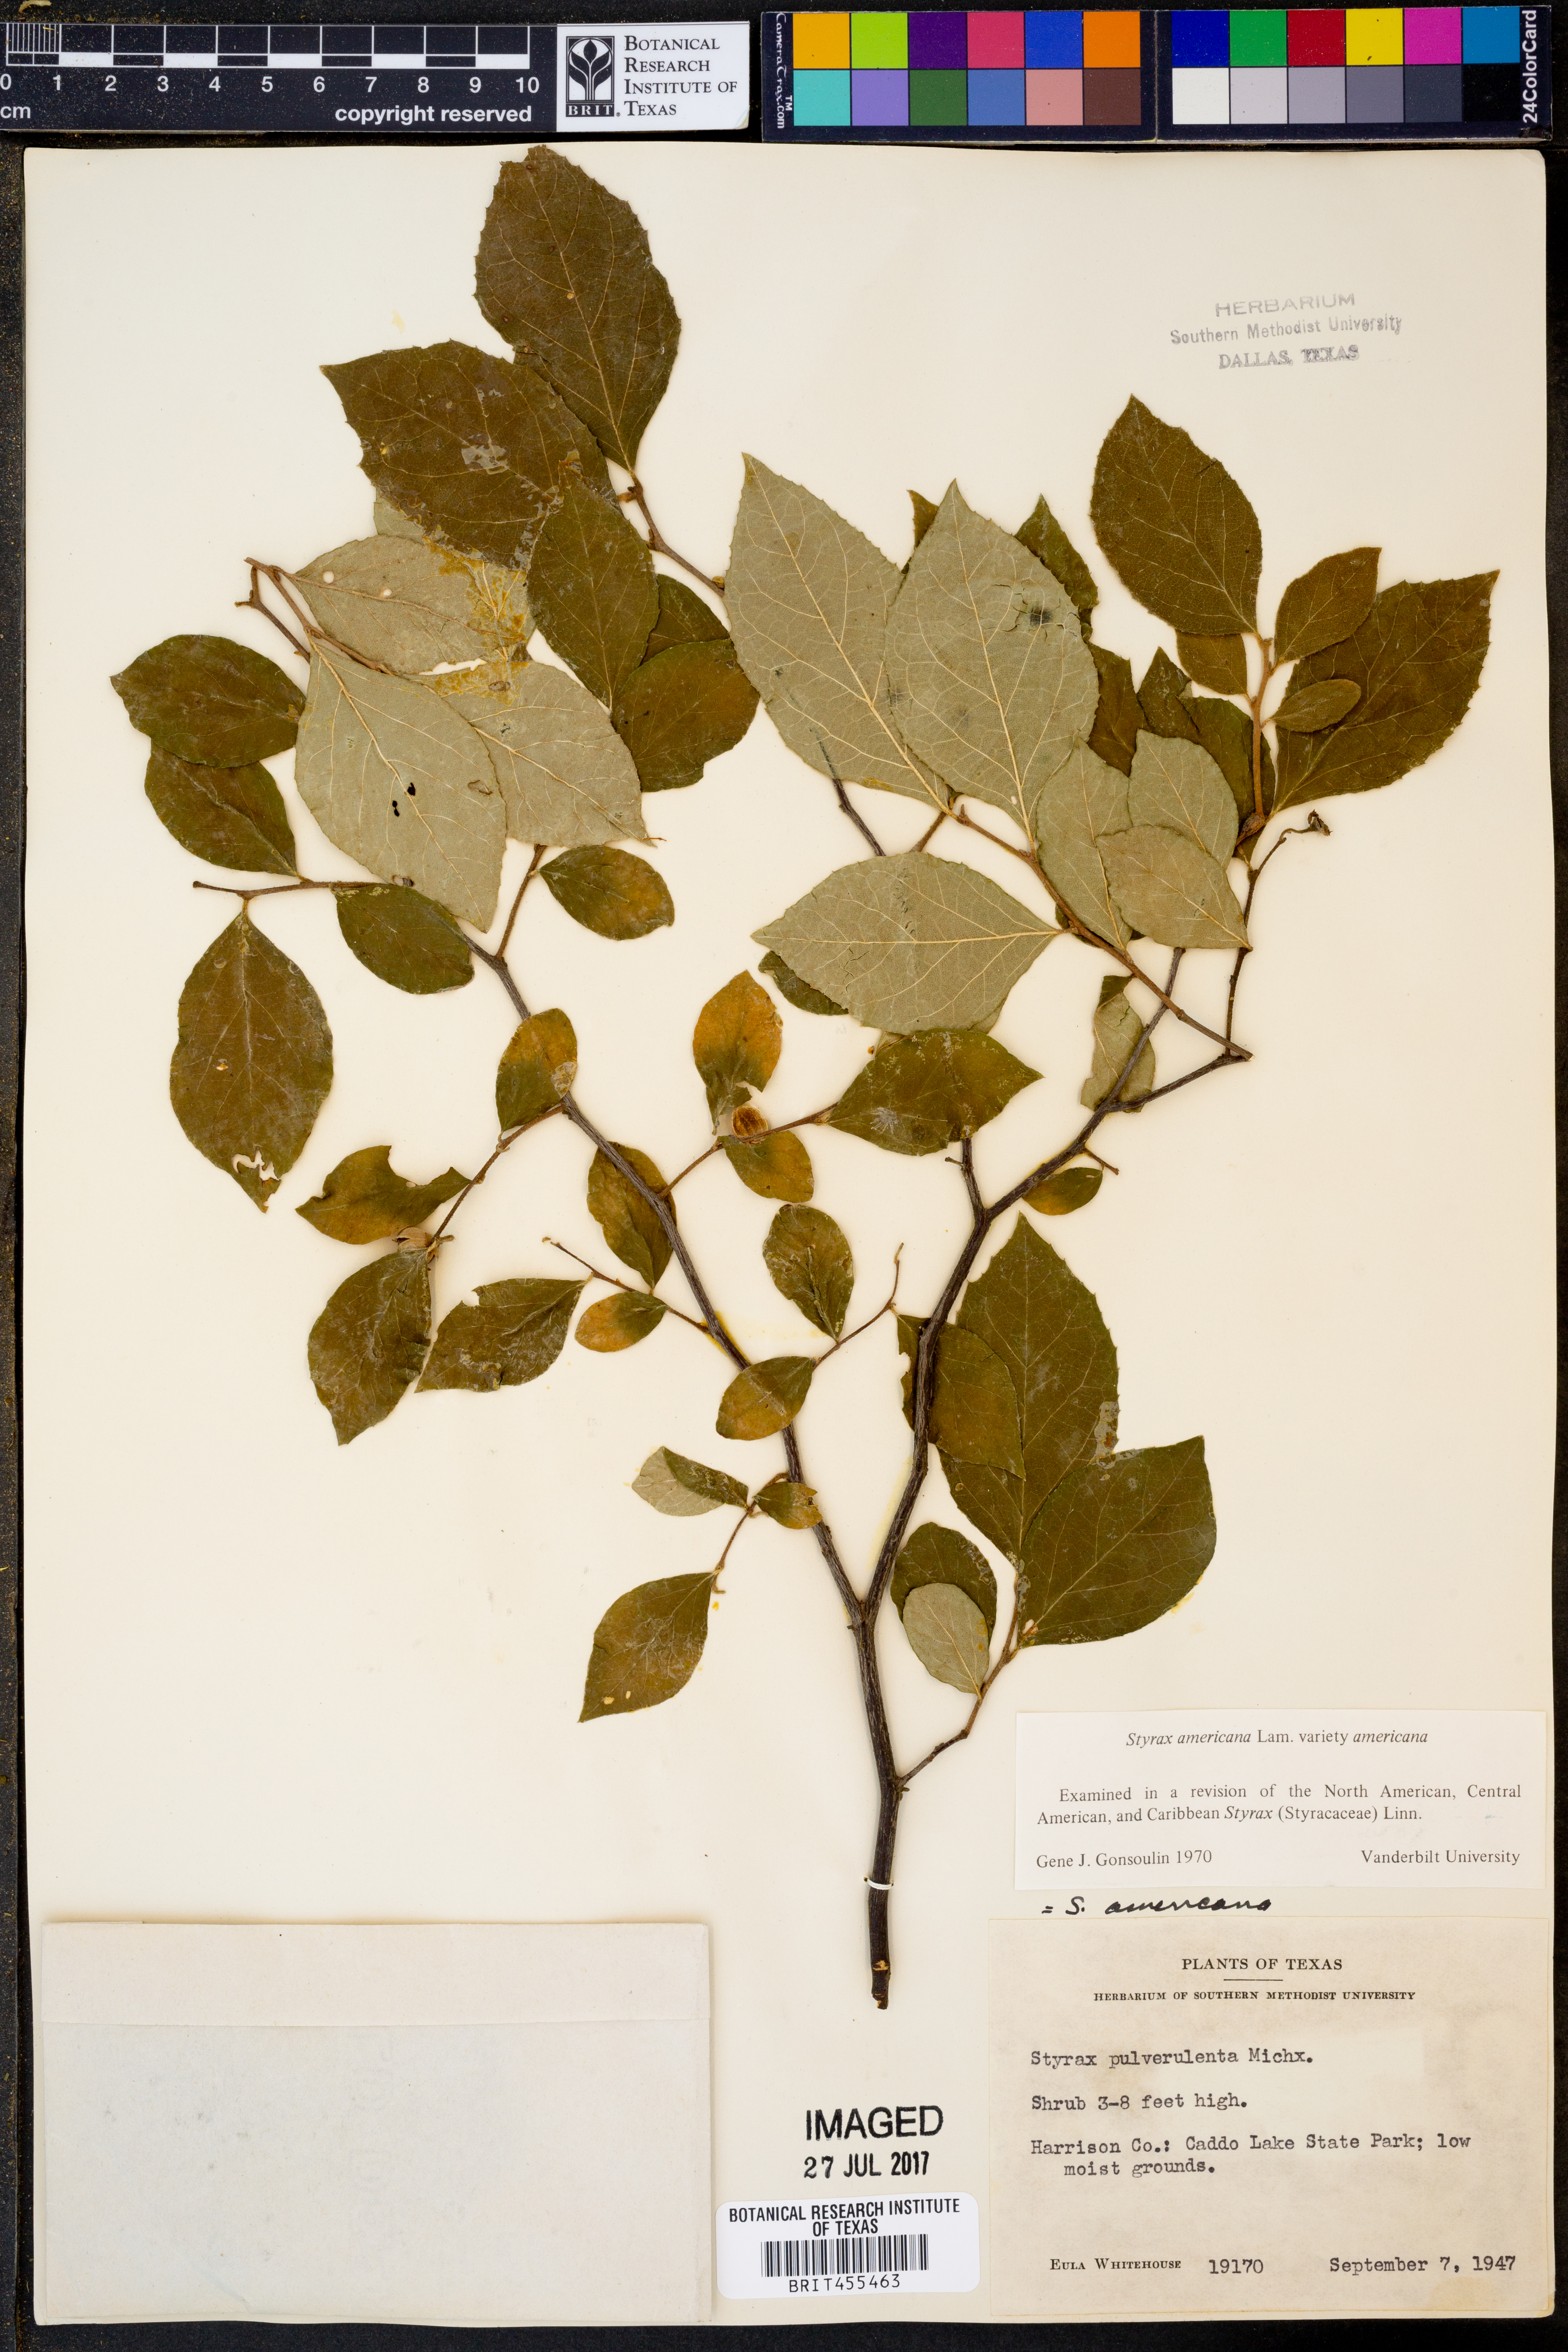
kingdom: Plantae
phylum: Tracheophyta
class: Magnoliopsida
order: Ericales
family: Styracaceae
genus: Styrax
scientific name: Styrax americanus
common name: American snowbell
